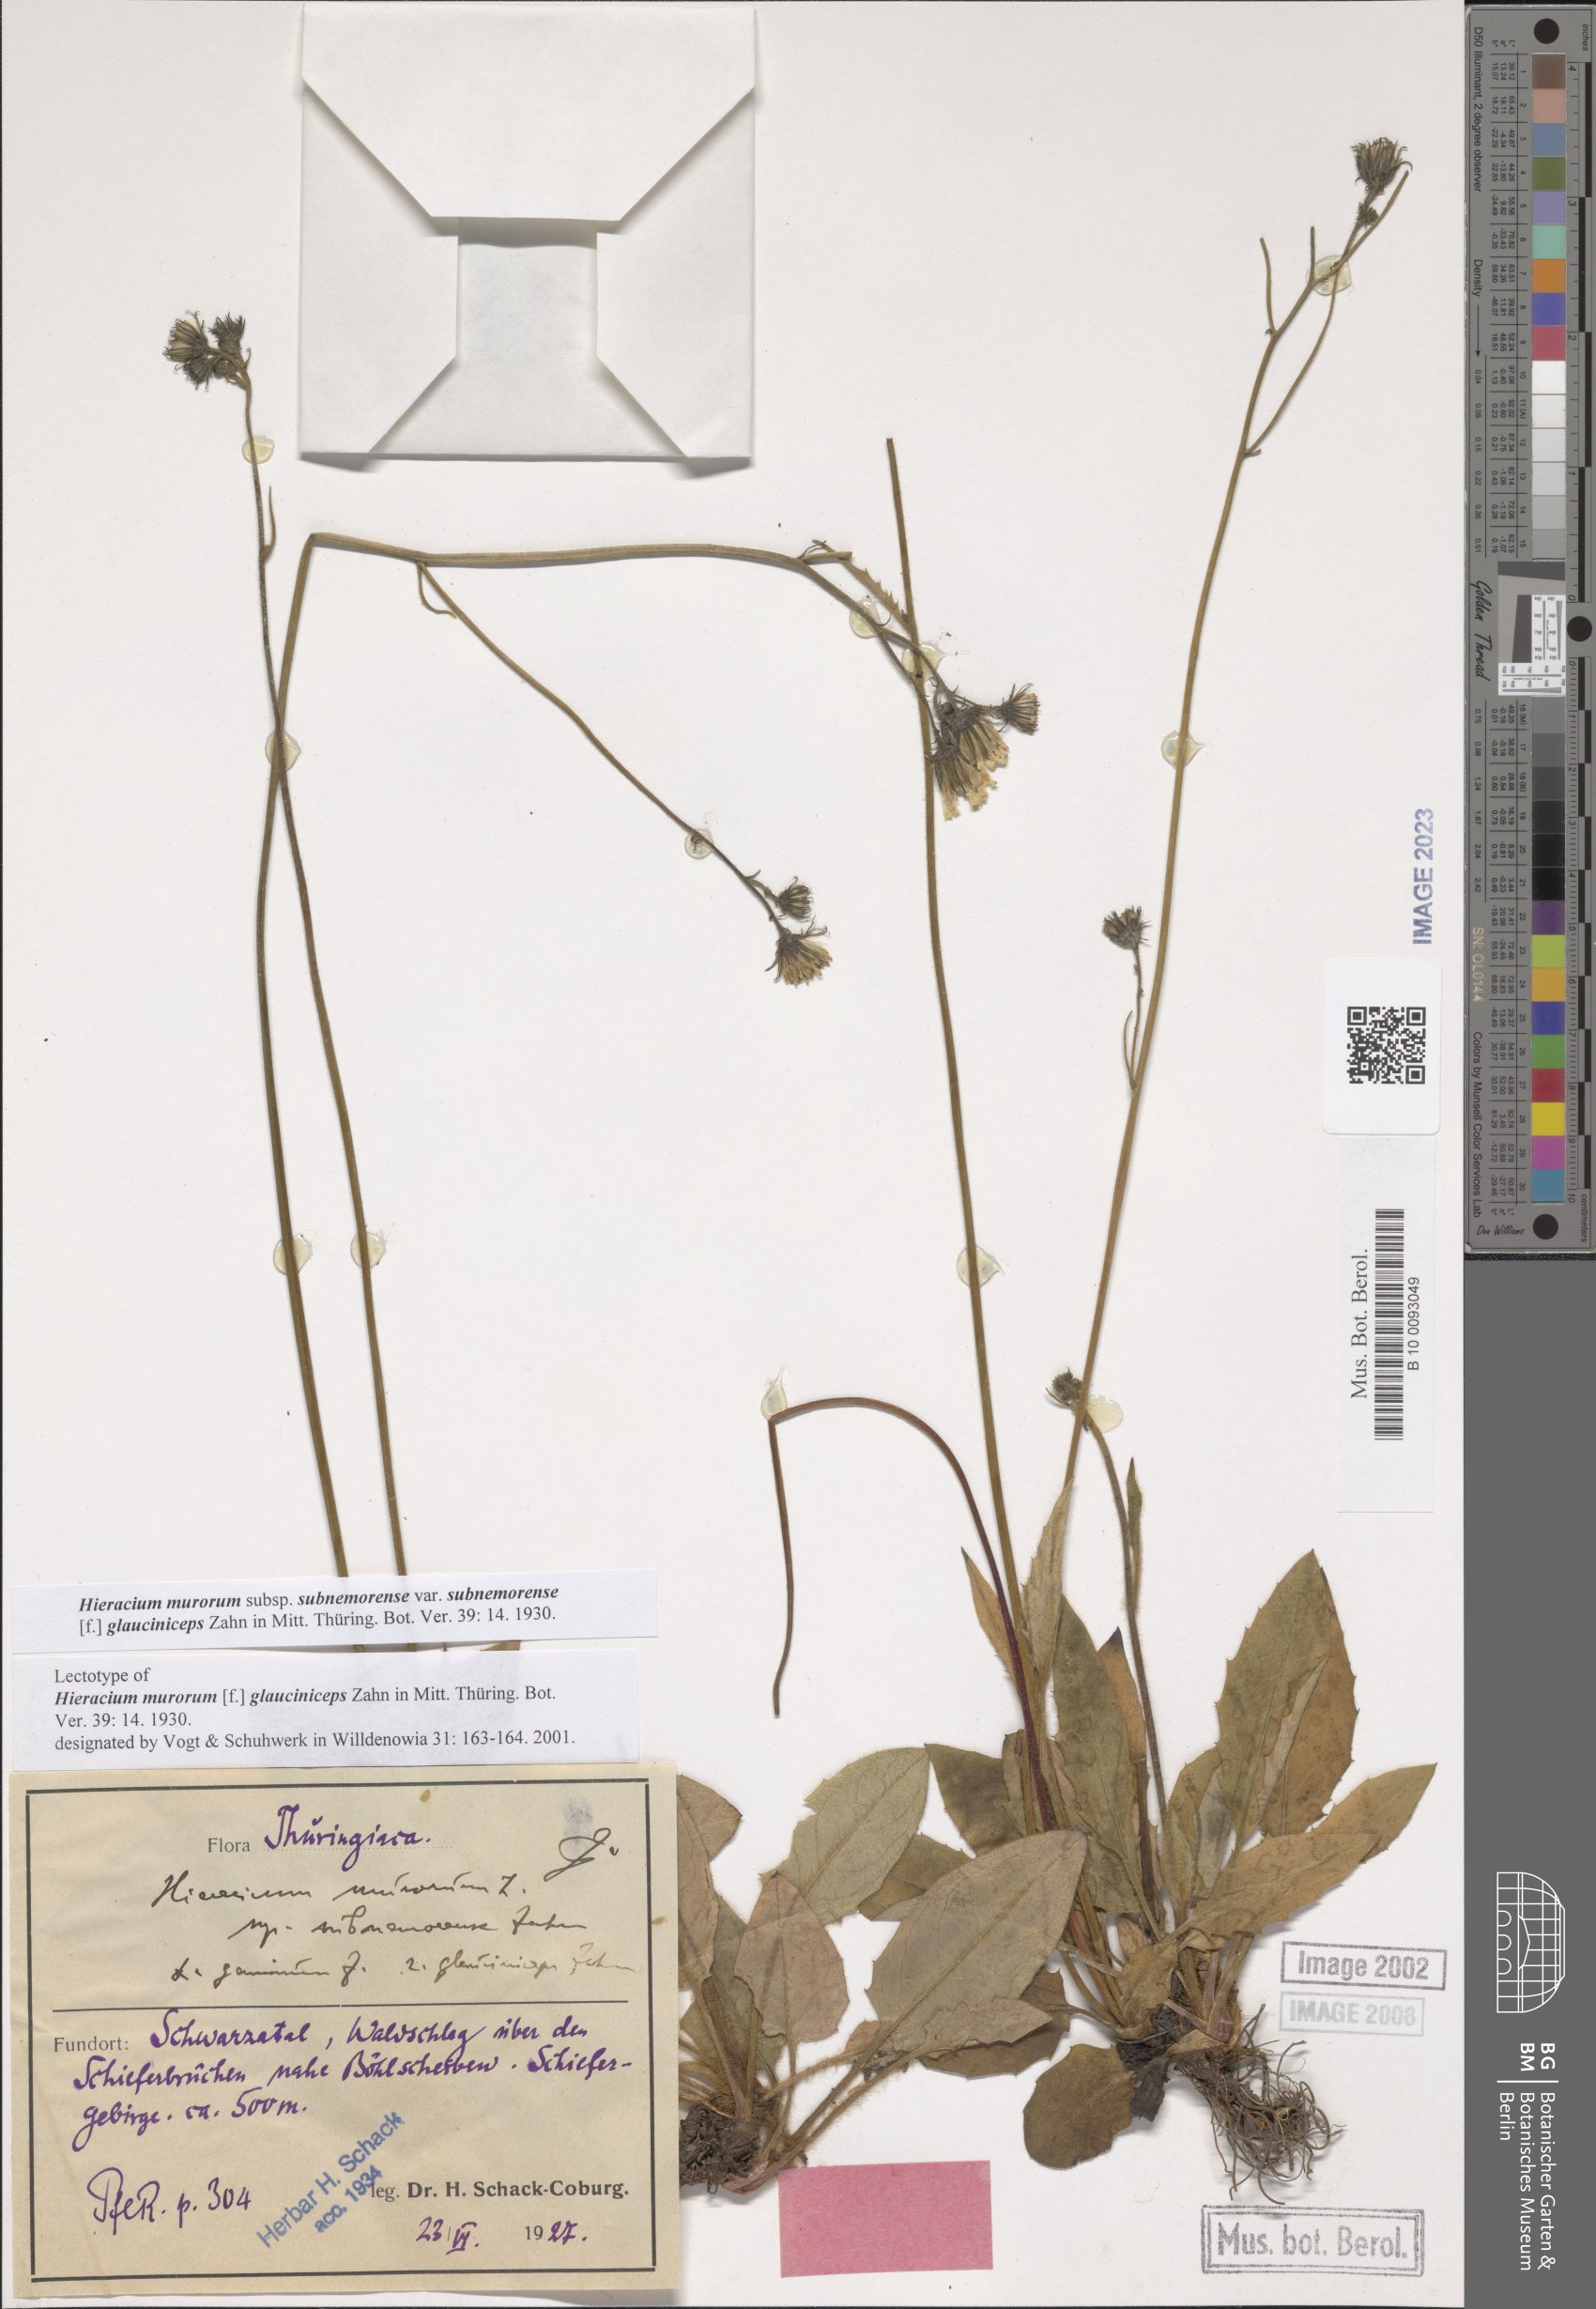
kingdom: Plantae
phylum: Tracheophyta
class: Magnoliopsida
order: Asterales
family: Asteraceae
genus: Hieracium
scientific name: Hieracium murorum
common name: Wall hawkweed
